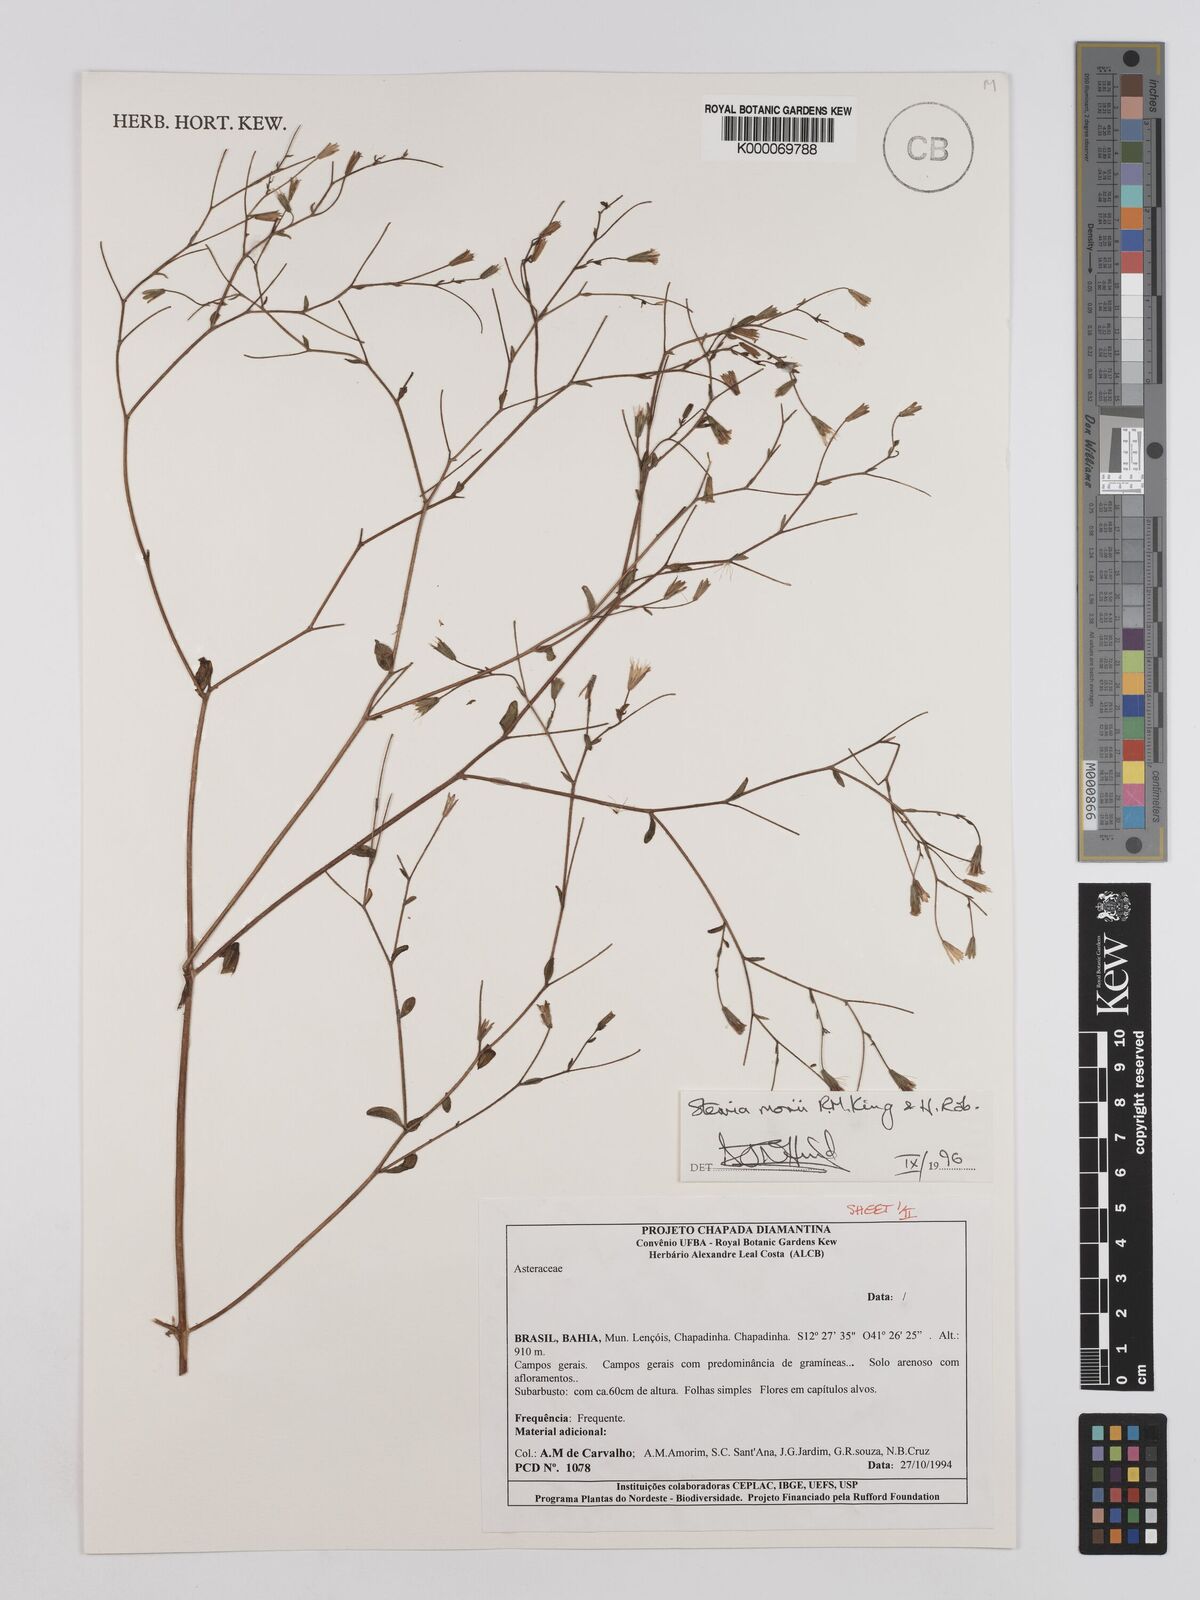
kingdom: Plantae
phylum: Tracheophyta
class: Magnoliopsida
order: Asterales
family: Asteraceae
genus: Stevia
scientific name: Stevia morii
